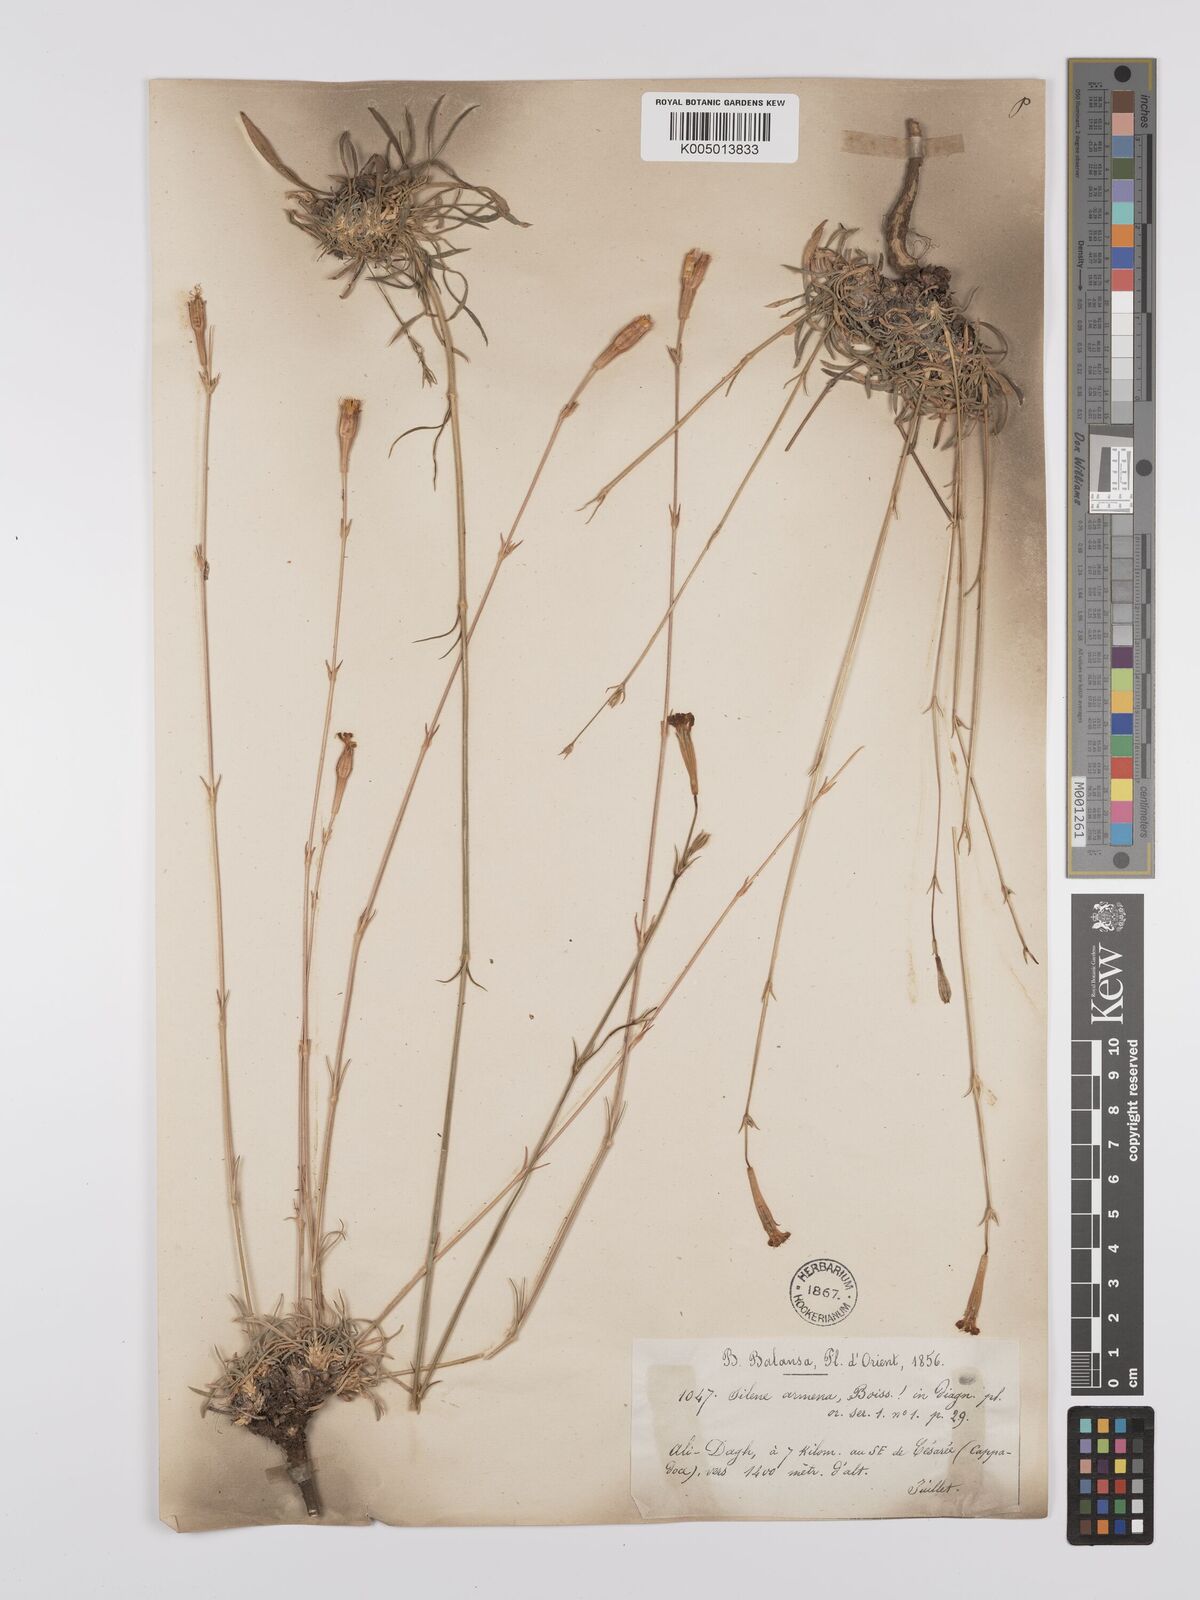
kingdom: Plantae
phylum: Tracheophyta
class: Magnoliopsida
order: Caryophyllales
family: Caryophyllaceae
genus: Silene
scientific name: Silene armena
